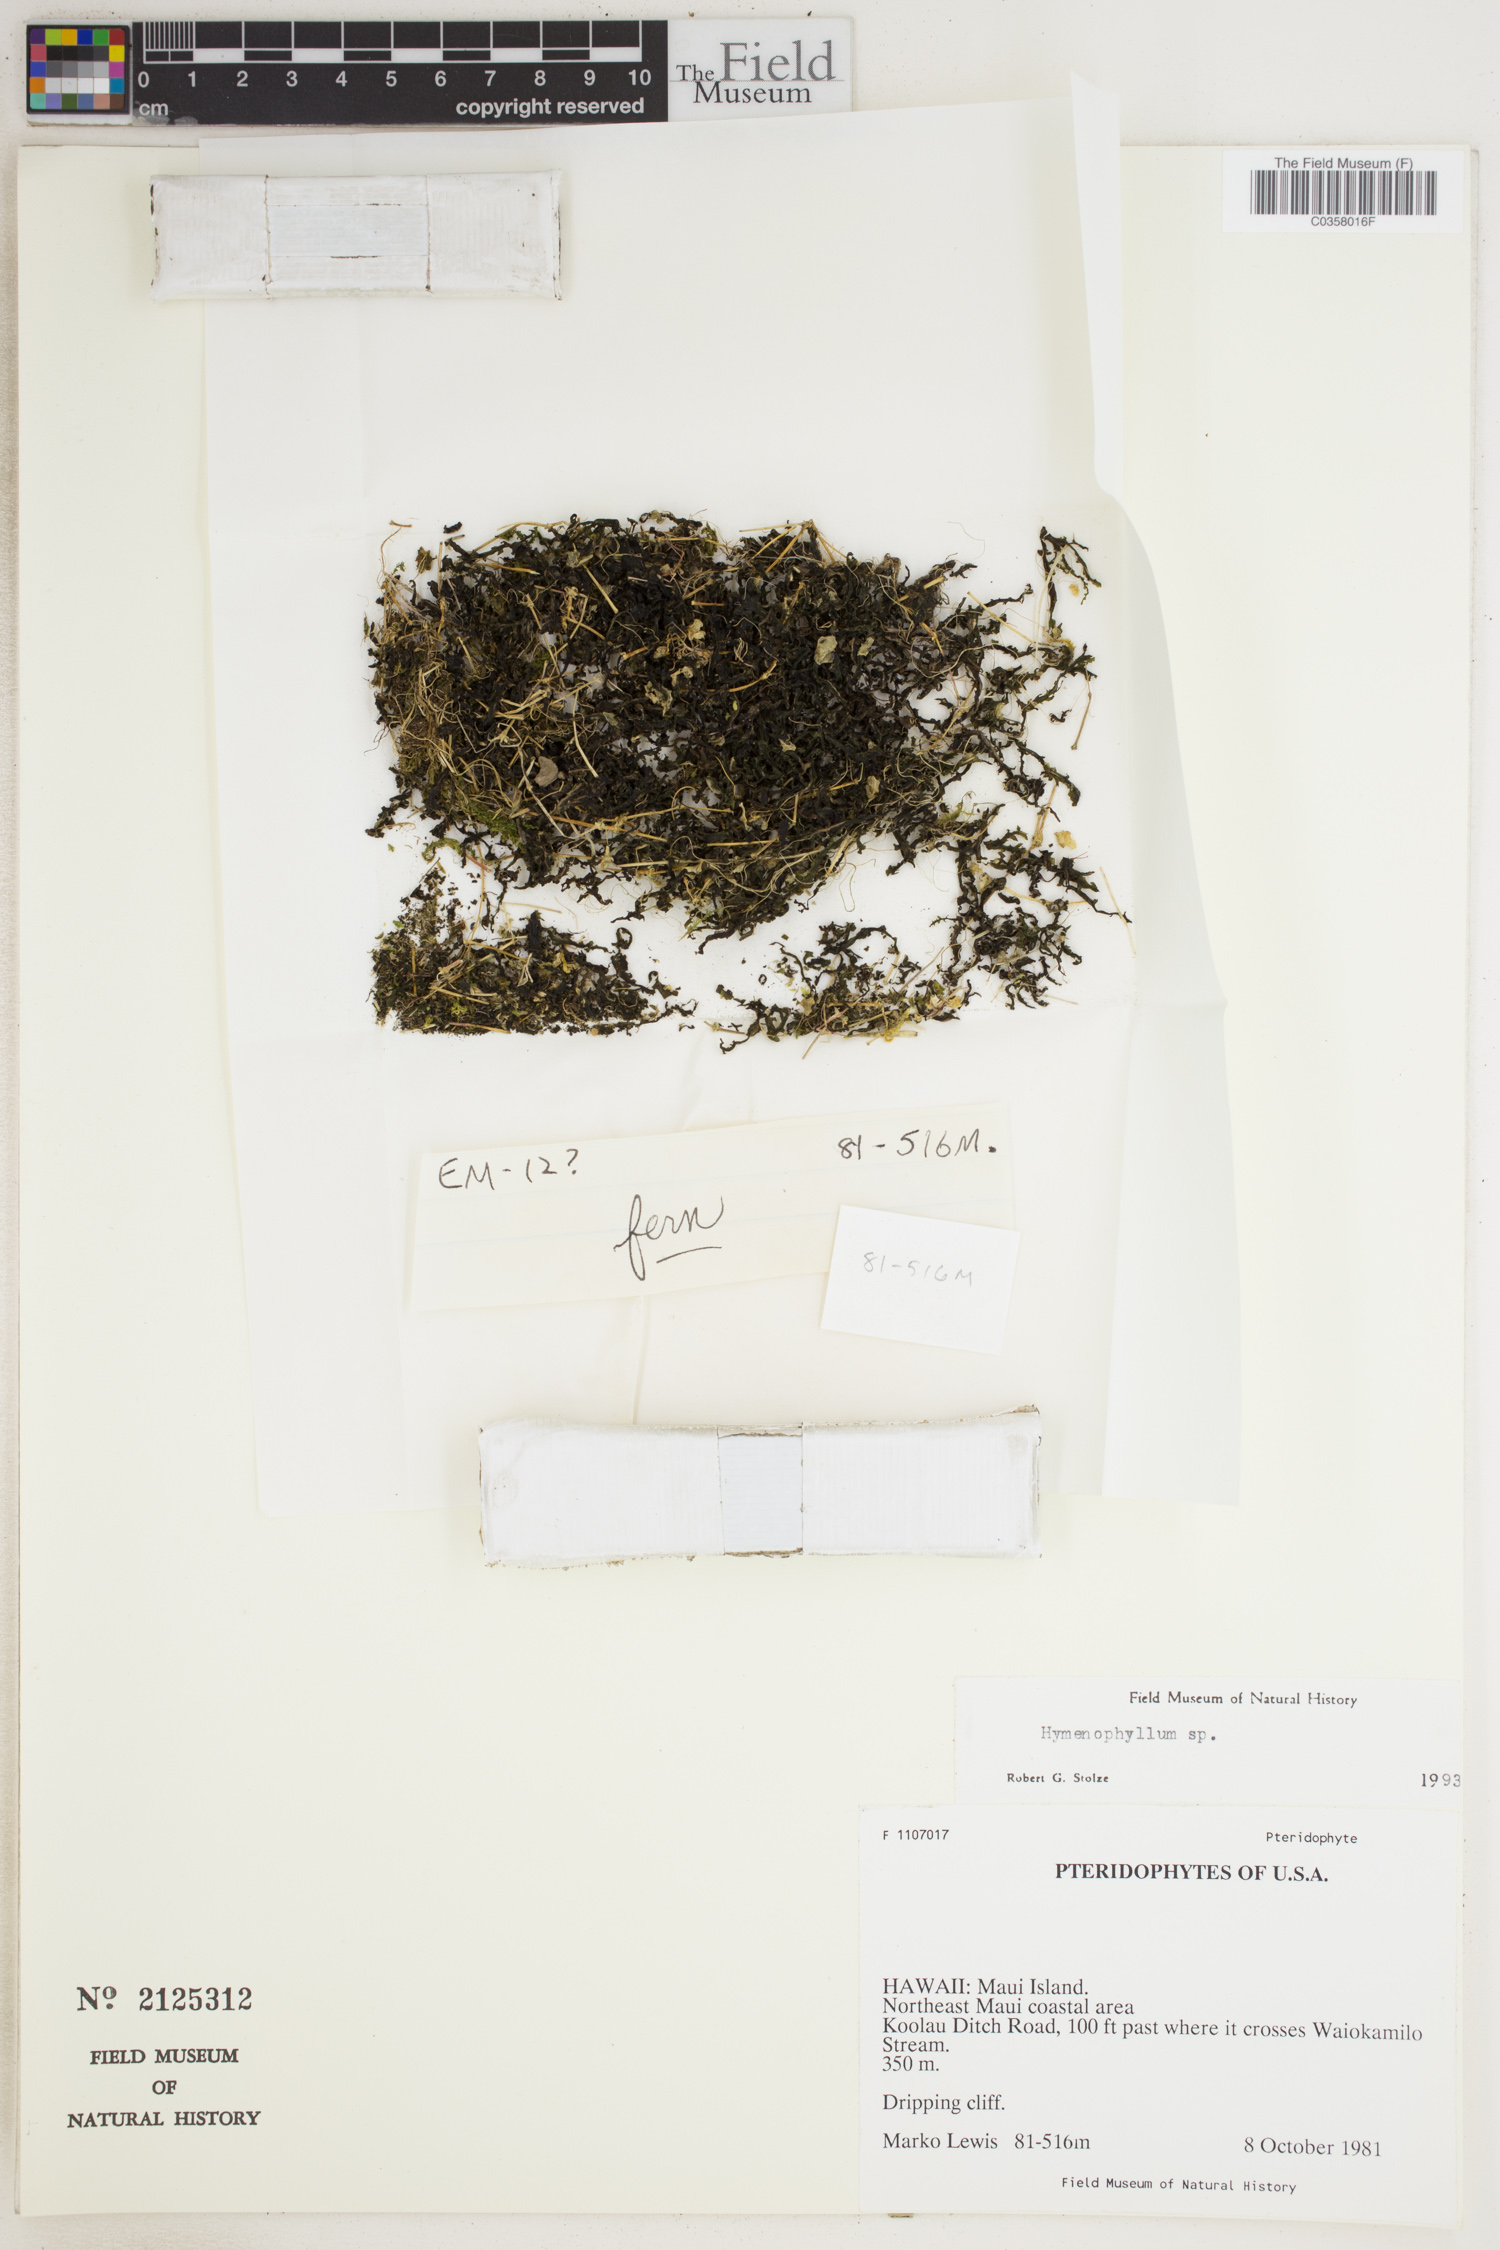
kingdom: Plantae
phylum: Tracheophyta
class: Polypodiopsida
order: Hymenophyllales
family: Hymenophyllaceae
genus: Hymenophyllum
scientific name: Hymenophyllum
